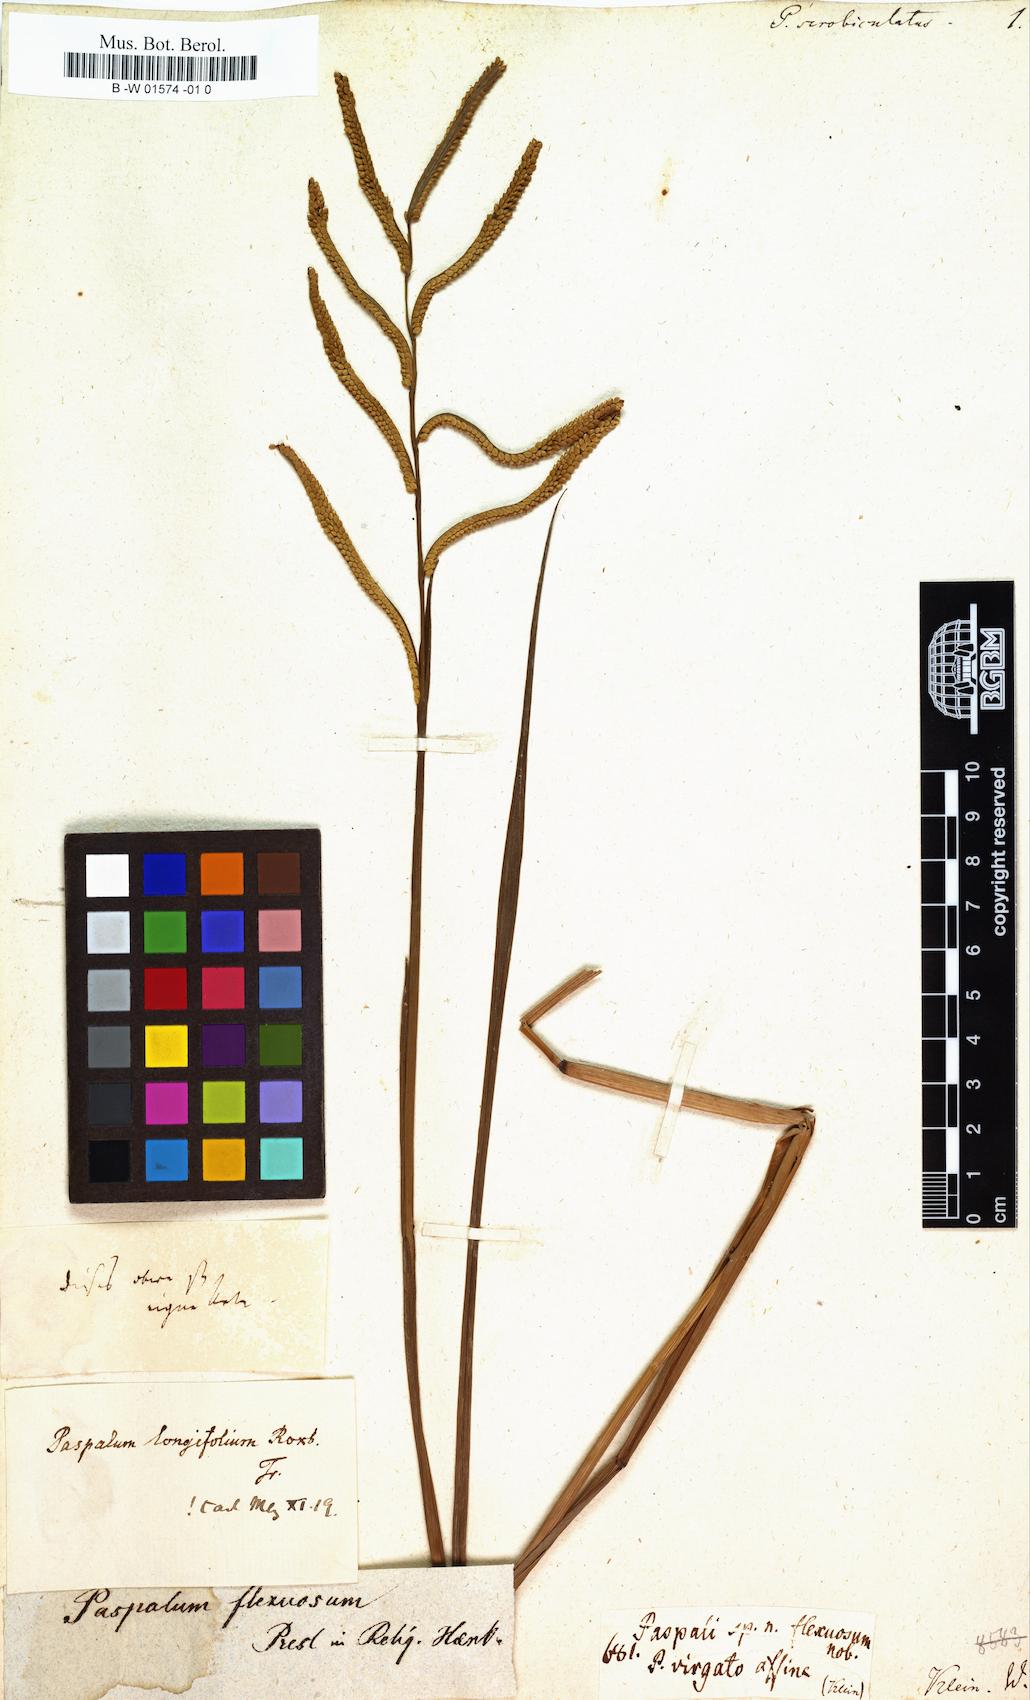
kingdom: Plantae
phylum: Tracheophyta
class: Liliopsida
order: Poales
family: Poaceae
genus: Paspalus
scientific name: Paspalus
